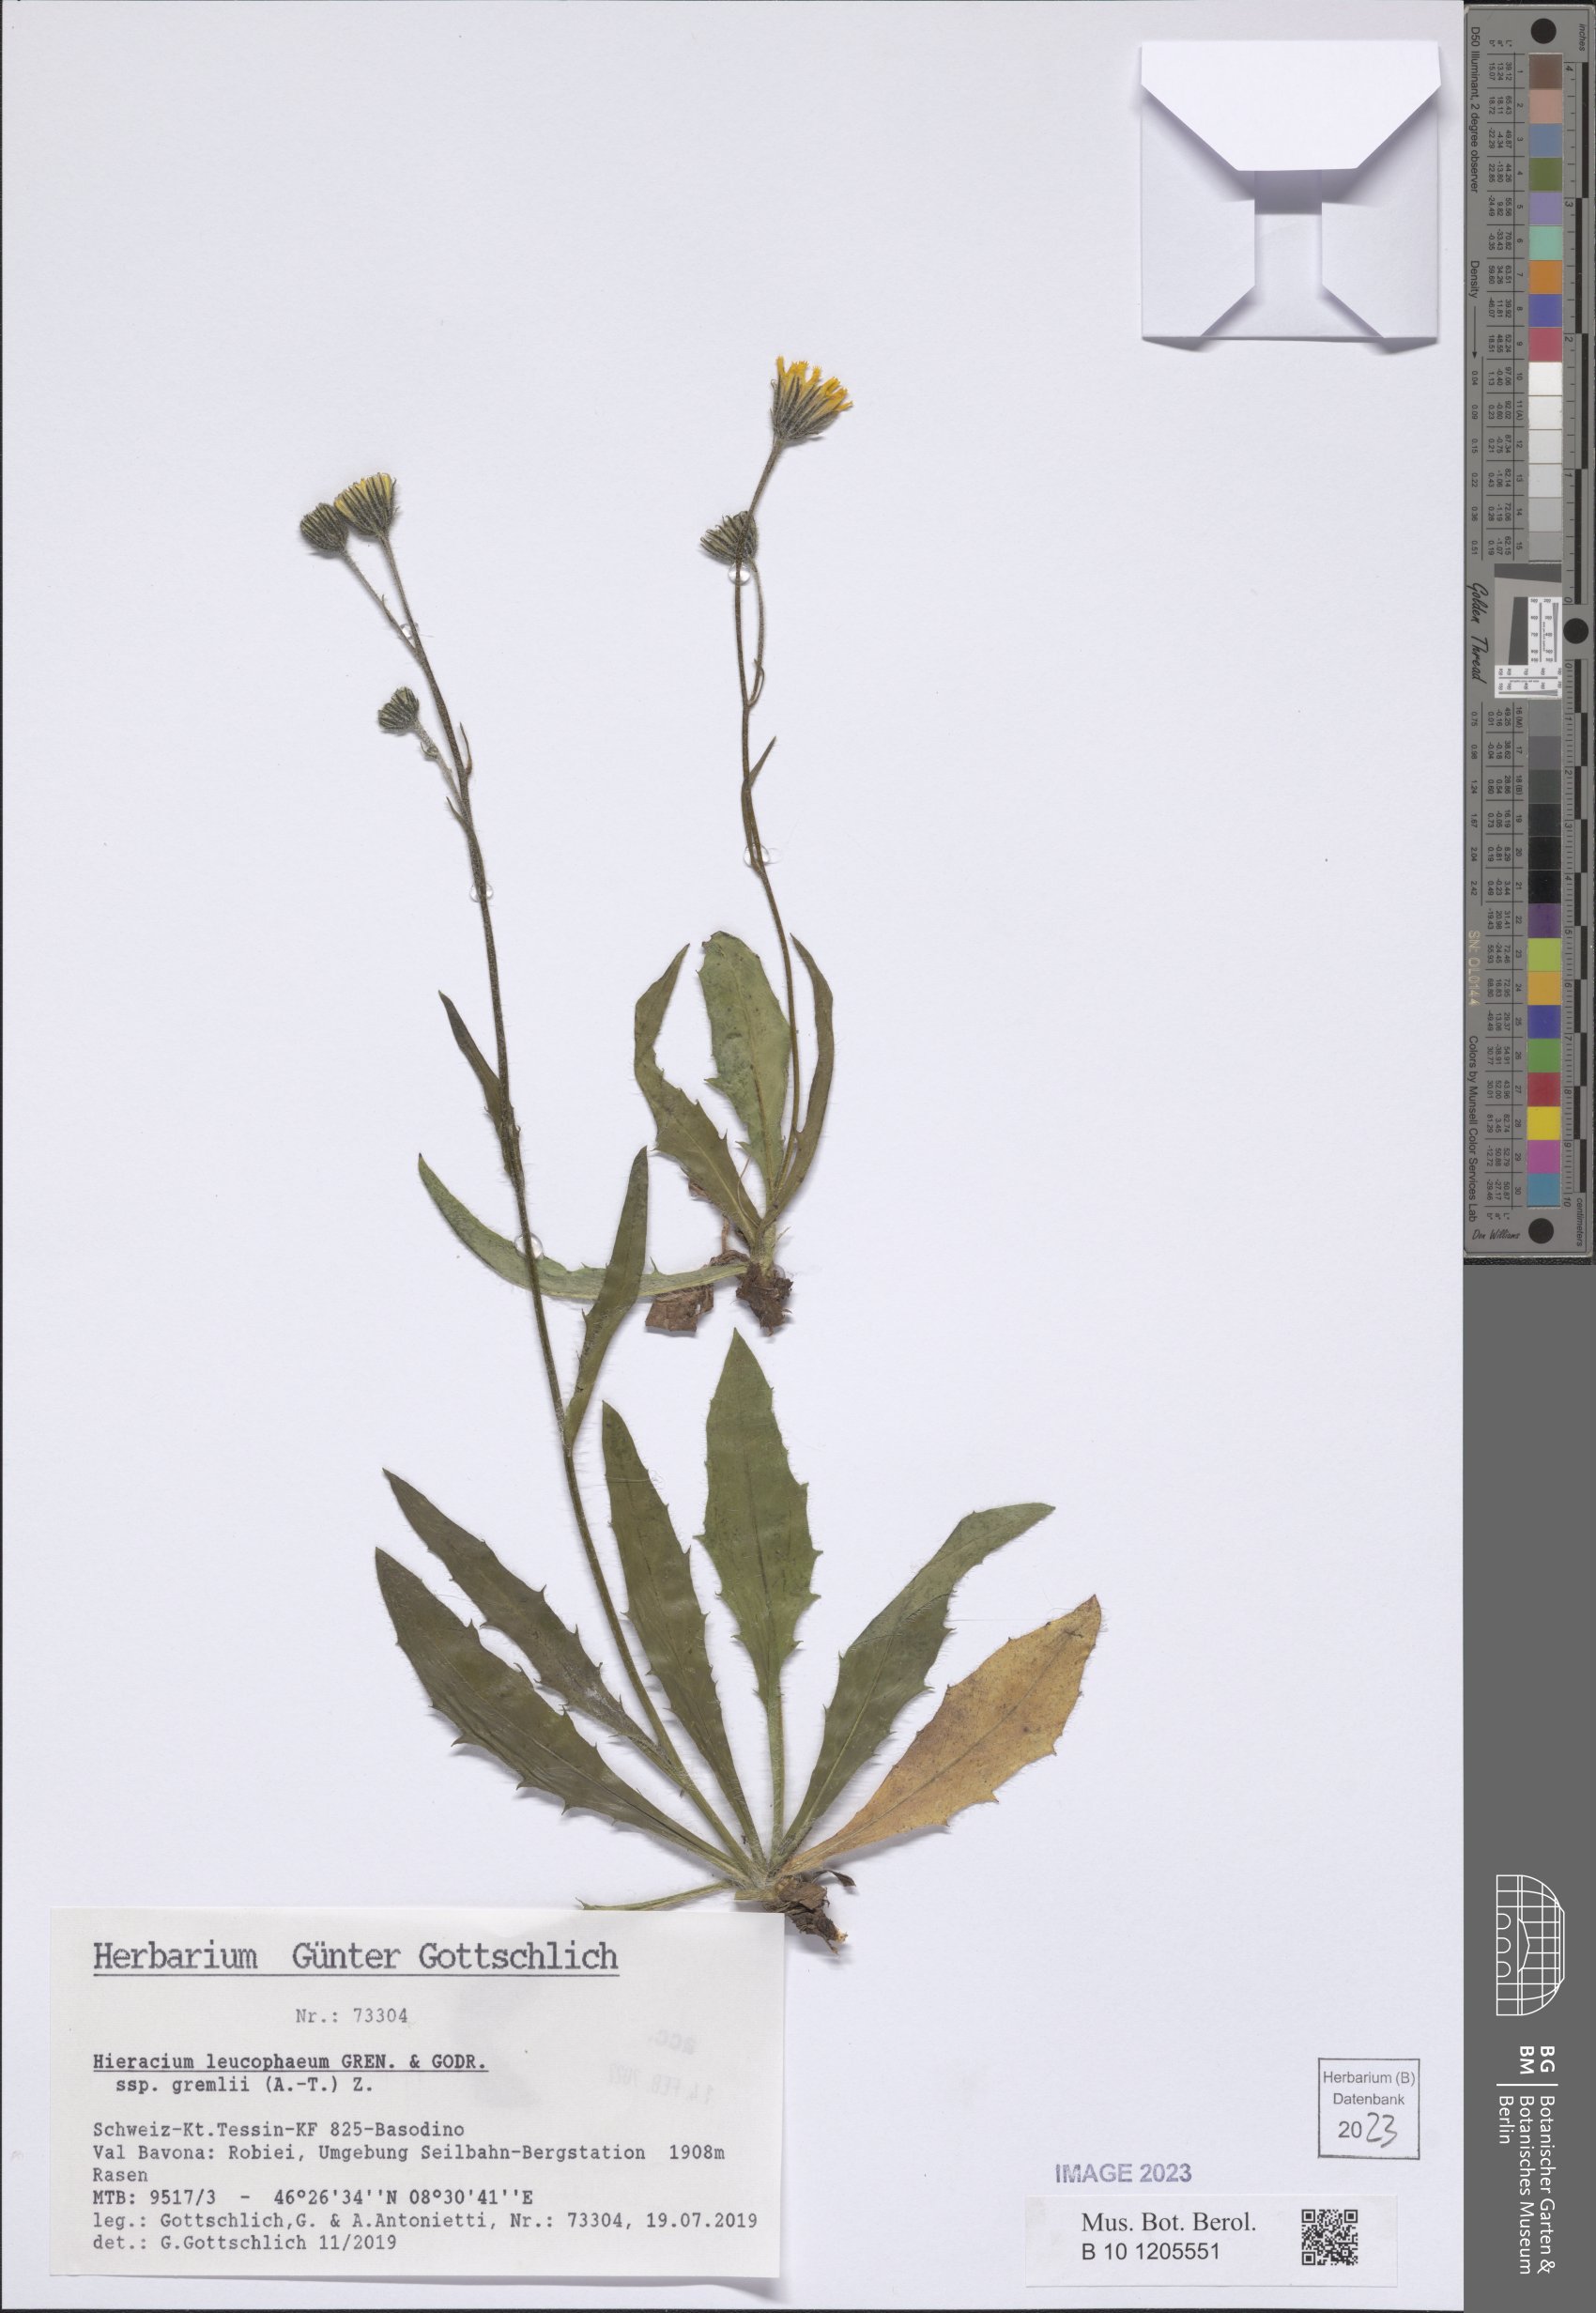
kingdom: Plantae
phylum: Tracheophyta
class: Magnoliopsida
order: Asterales
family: Asteraceae
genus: Hieracium
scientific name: Hieracium leucophaeum
